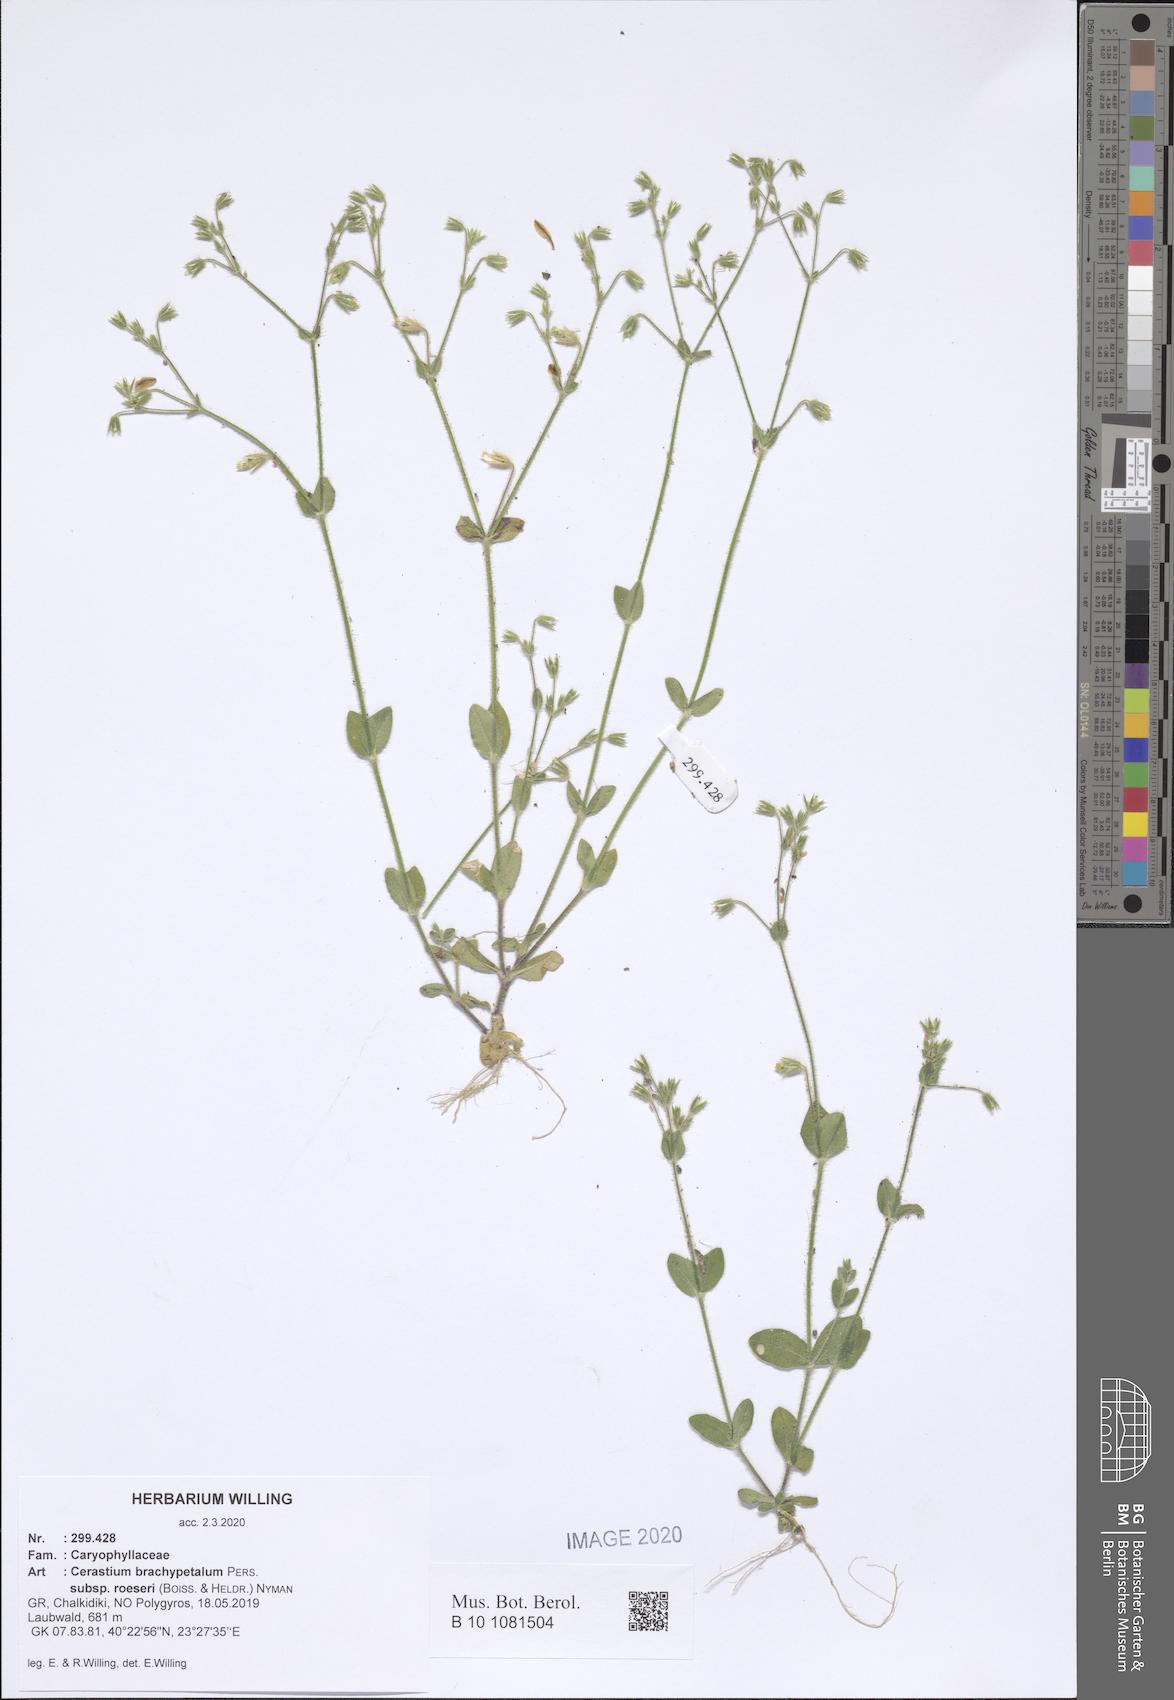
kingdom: Plantae
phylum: Tracheophyta
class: Magnoliopsida
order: Caryophyllales
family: Caryophyllaceae
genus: Cerastium
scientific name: Cerastium brachypetalum
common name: Grey mouse-ear
